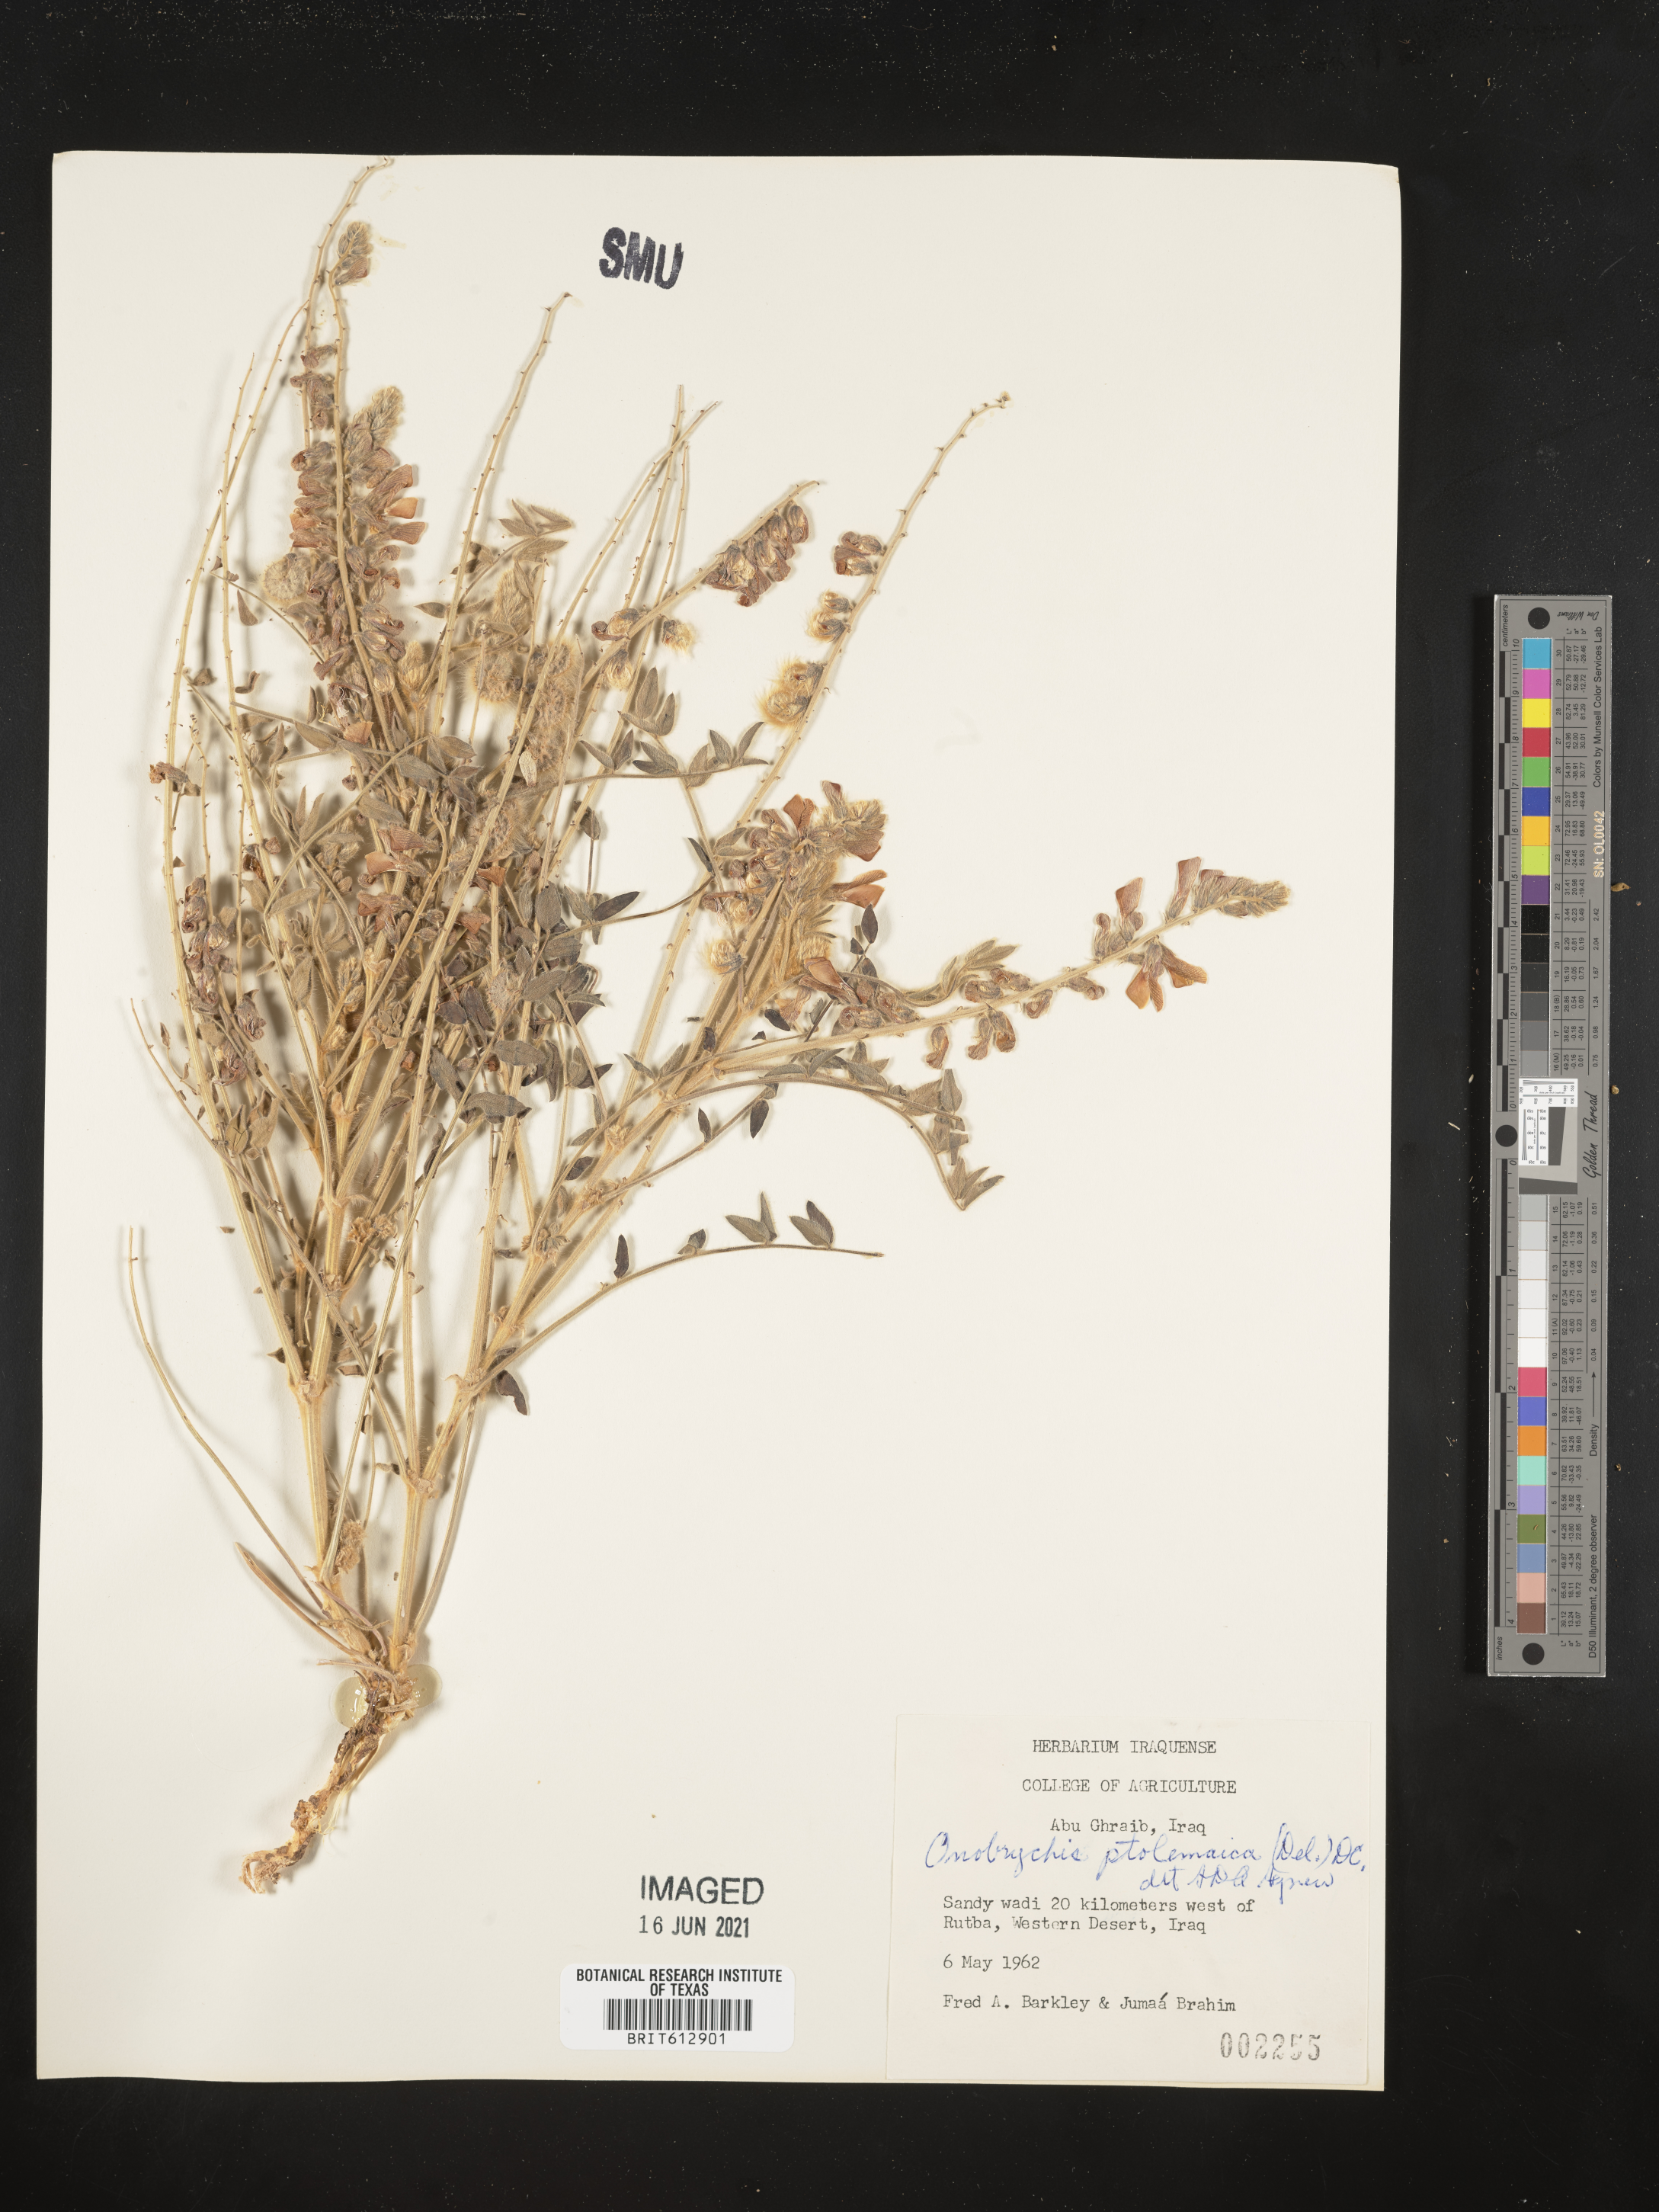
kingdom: Plantae
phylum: Tracheophyta
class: Magnoliopsida
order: Fabales
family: Fabaceae
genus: Onobrychis
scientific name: Onobrychis ptolemaica
